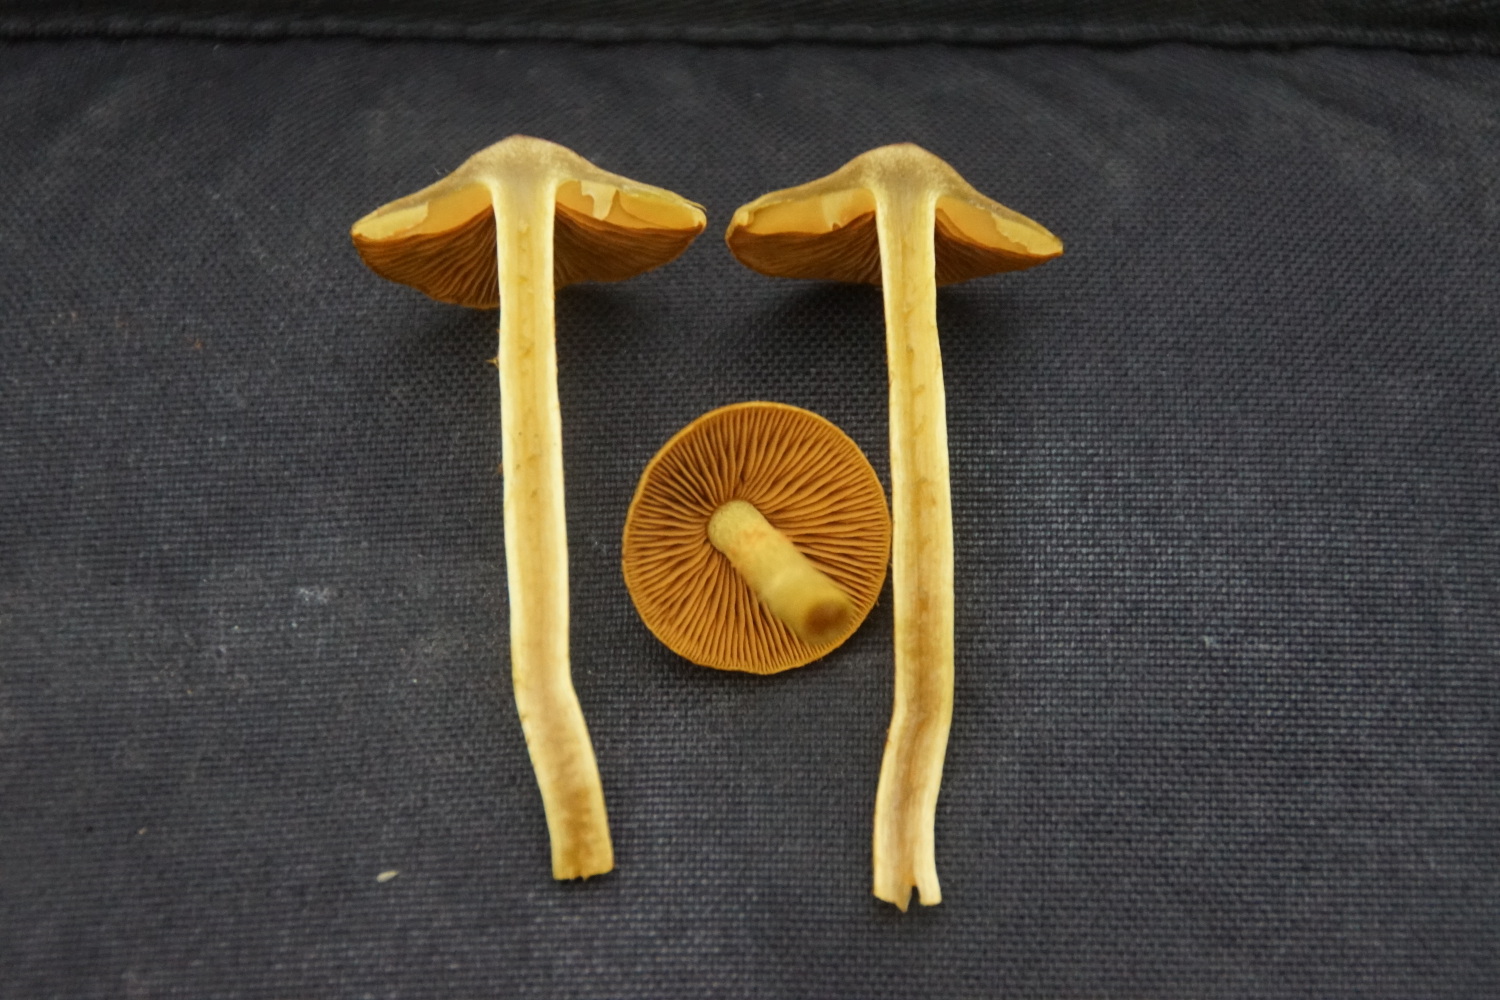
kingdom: Fungi
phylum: Basidiomycota
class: Agaricomycetes
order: Agaricales
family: Cortinariaceae
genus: Cortinarius
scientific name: Cortinarius
